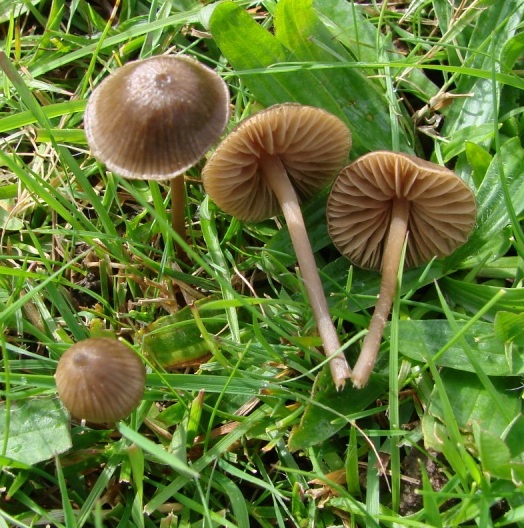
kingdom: Fungi
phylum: Basidiomycota
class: Agaricomycetes
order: Agaricales
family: Entolomataceae
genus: Entoloma
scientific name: Entoloma clandestinum
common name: tykbladet rødblad
